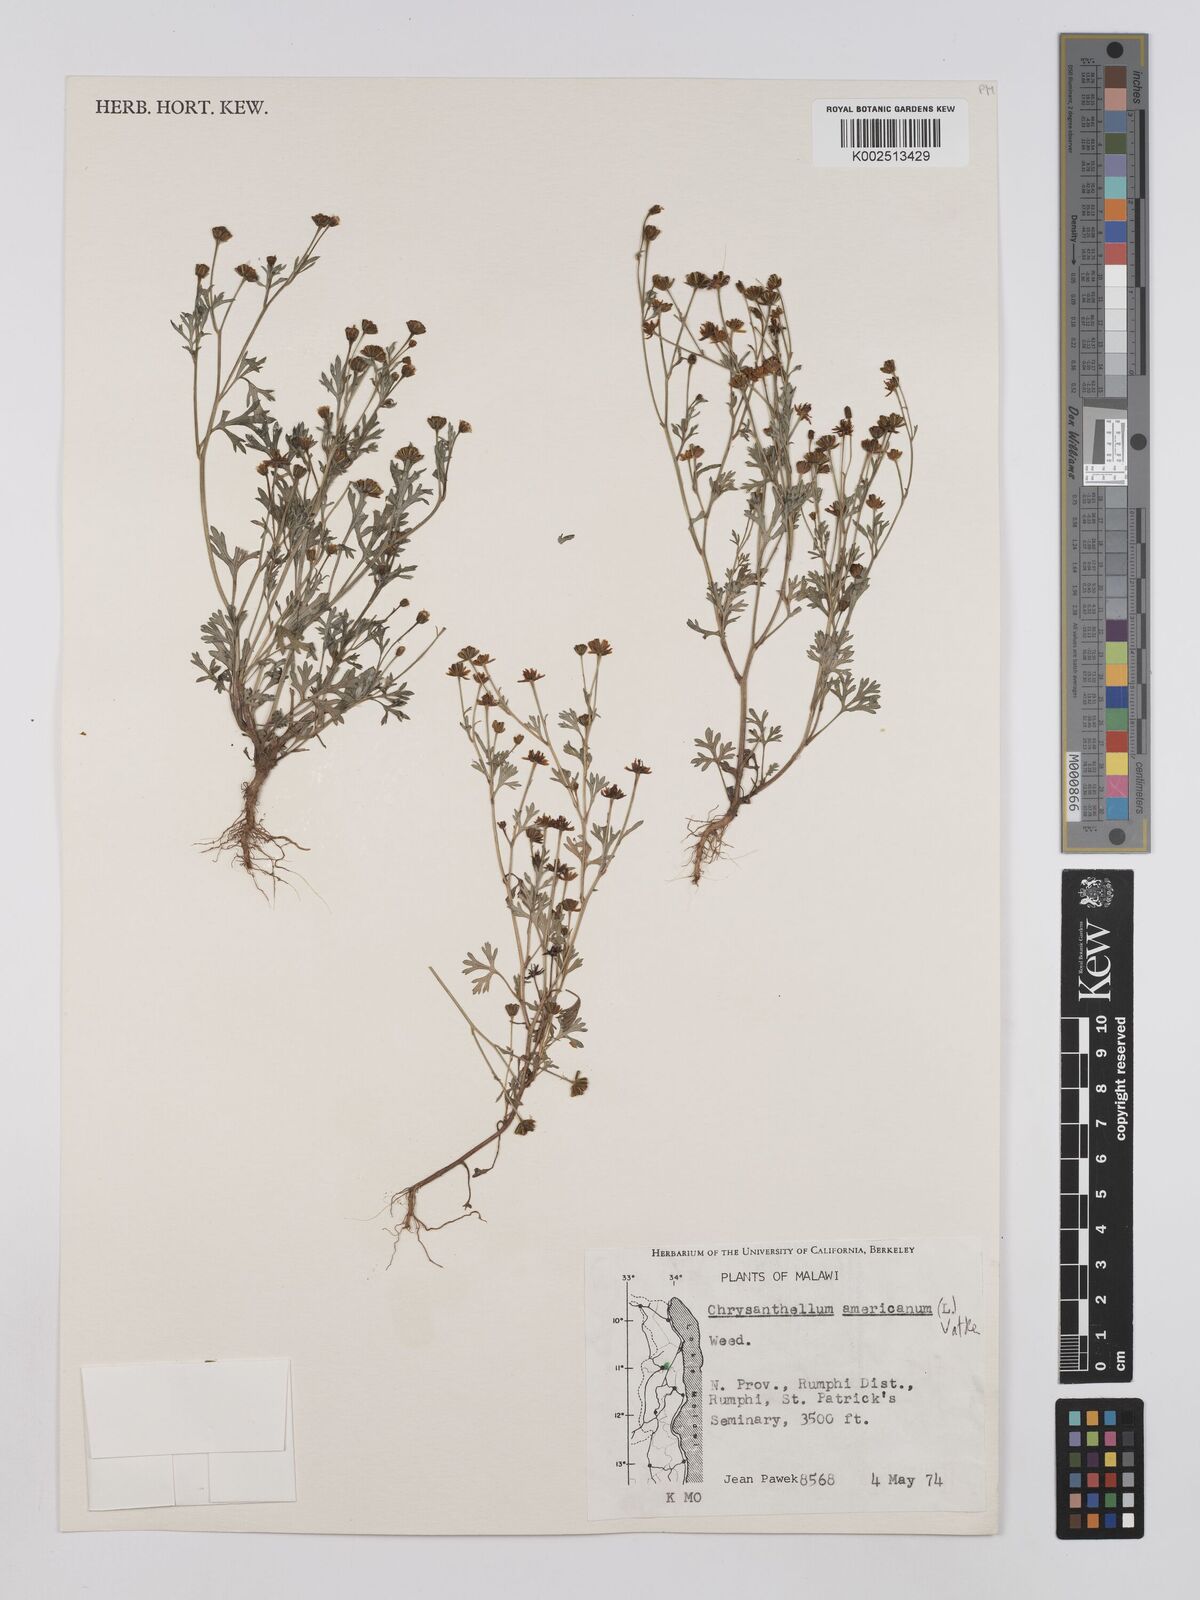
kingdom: Plantae
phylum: Tracheophyta
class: Magnoliopsida
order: Asterales
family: Asteraceae
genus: Chrysanthellum
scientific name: Chrysanthellum indicum
